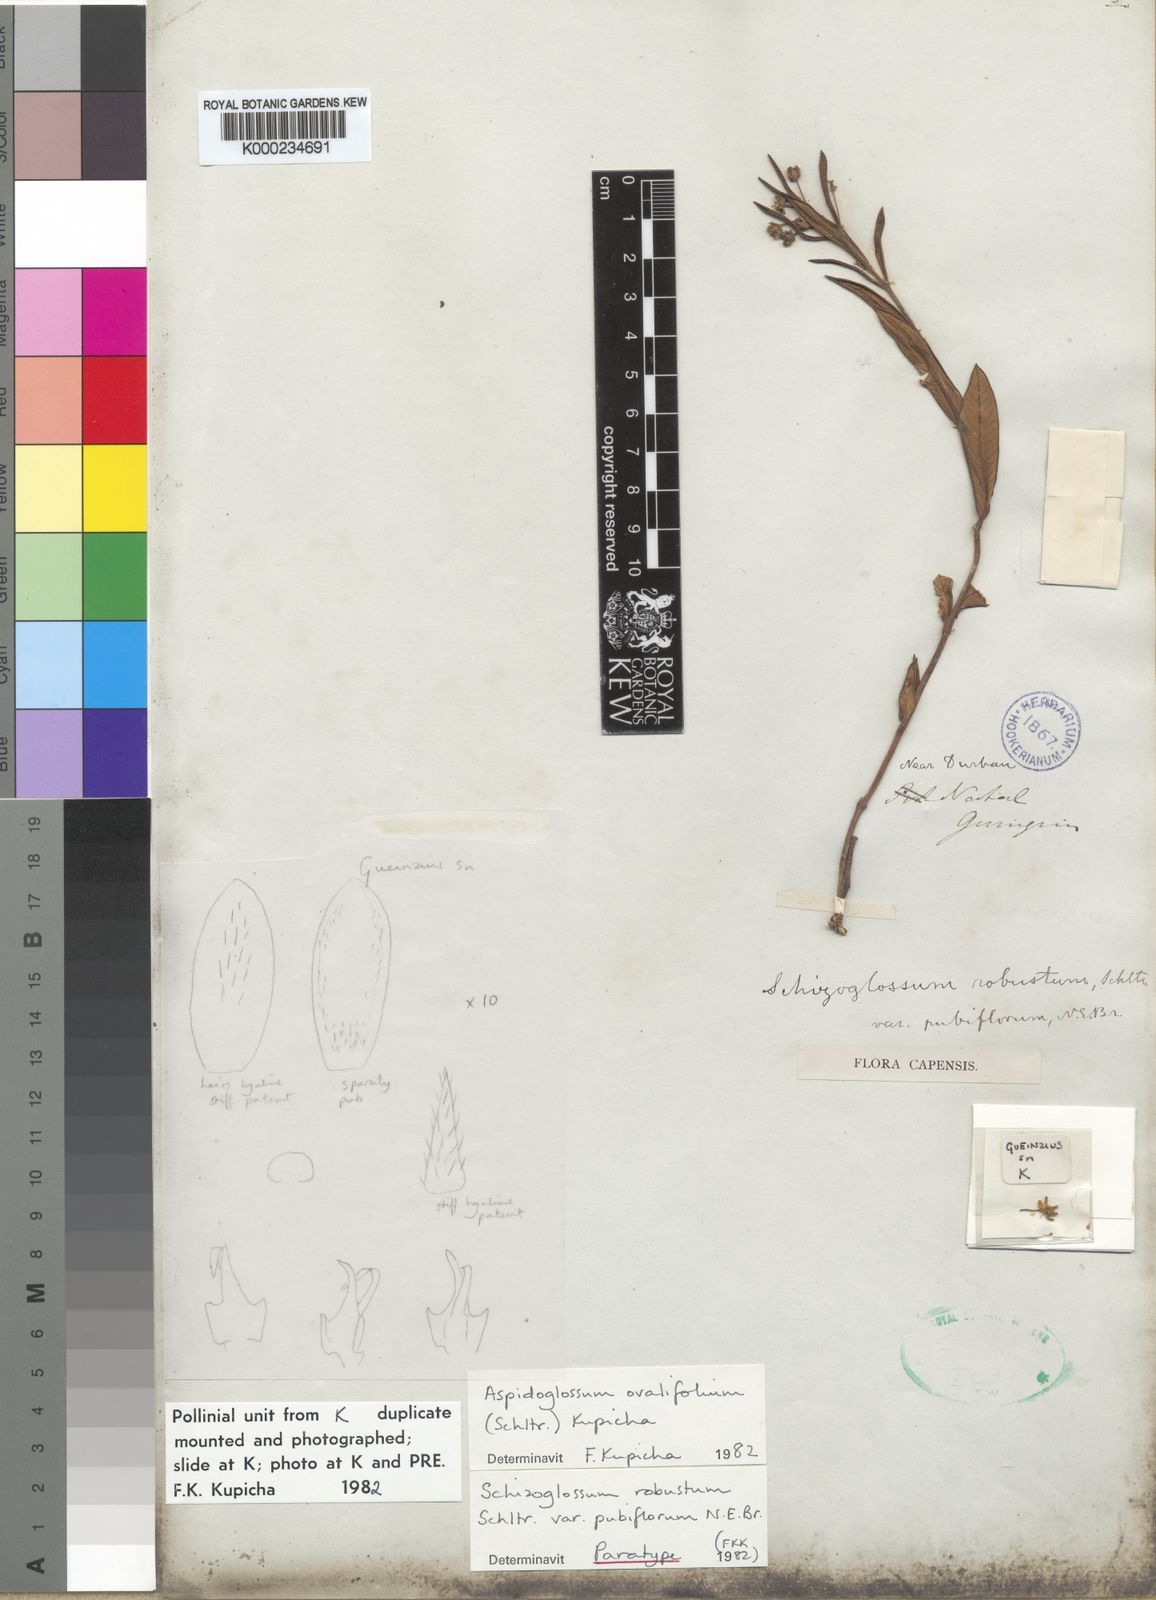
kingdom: Plantae
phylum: Tracheophyta
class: Magnoliopsida
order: Gentianales
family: Apocynaceae
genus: Aspidoglossum
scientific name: Aspidoglossum ovalifolium
